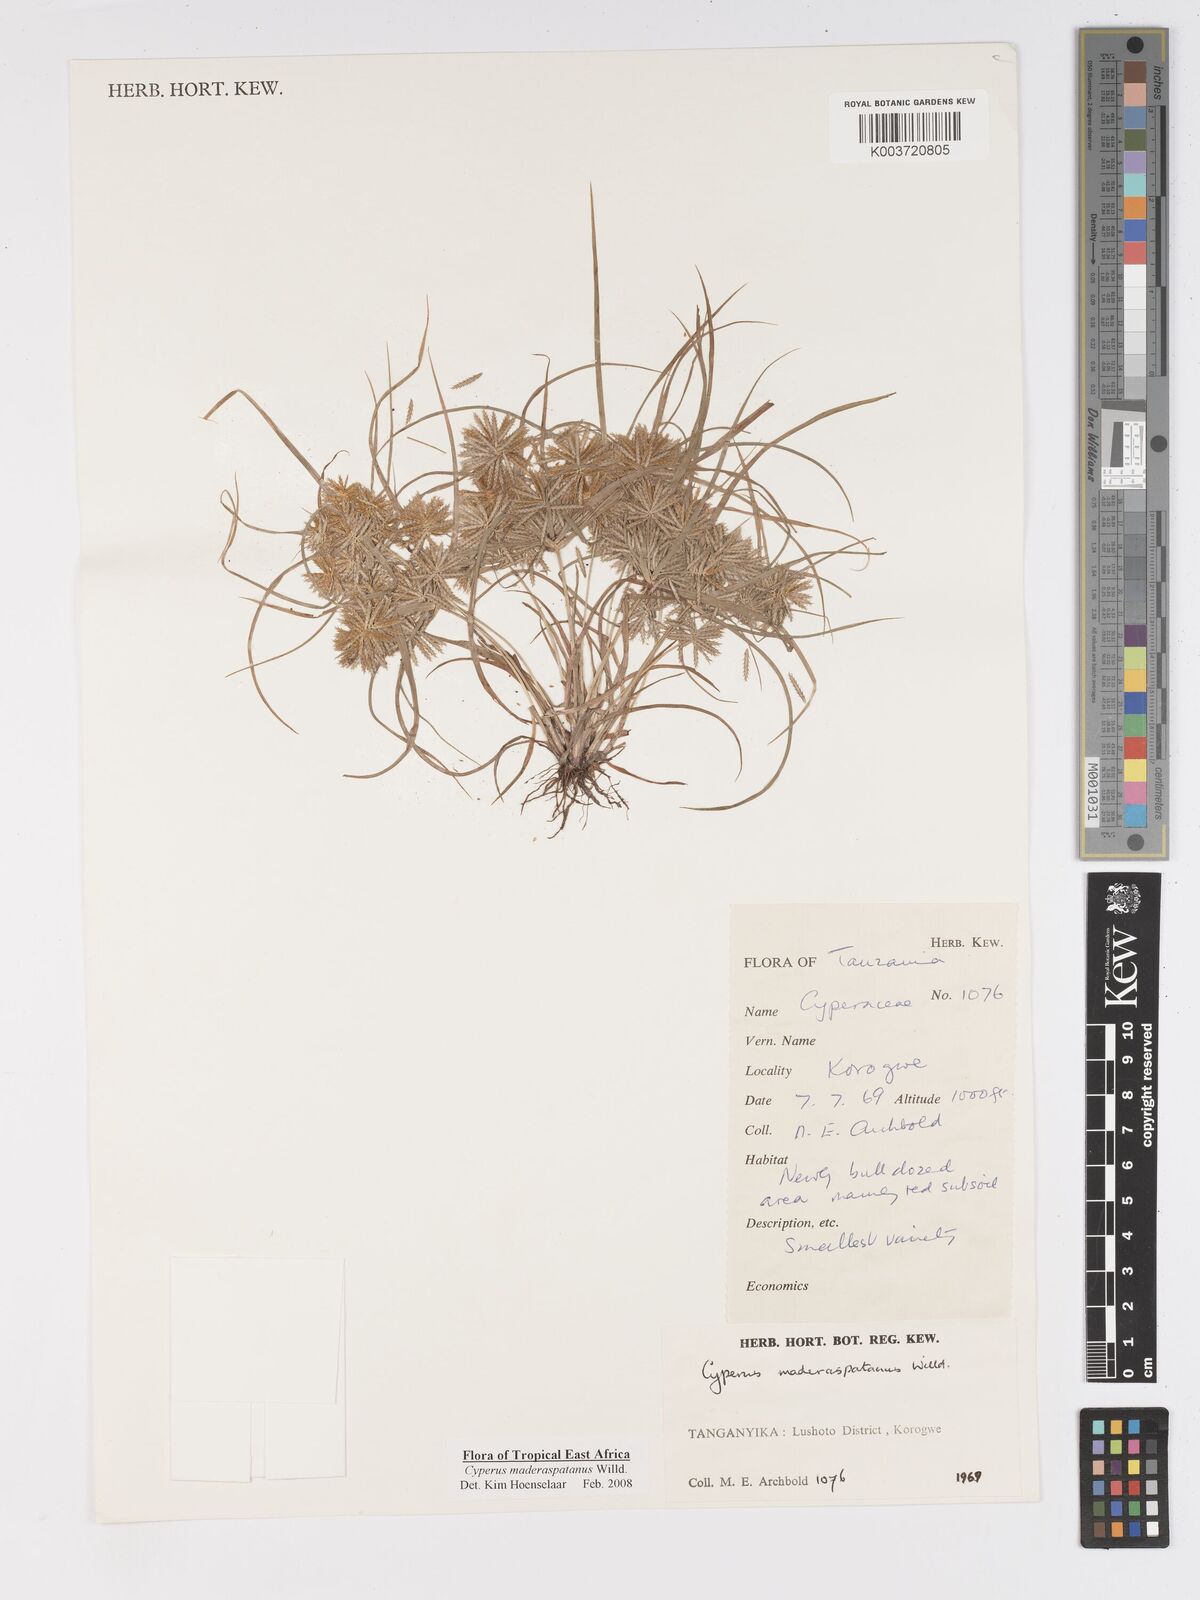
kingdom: Plantae
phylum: Tracheophyta
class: Liliopsida
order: Poales
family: Cyperaceae
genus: Cyperus
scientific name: Cyperus maderaspatanus
